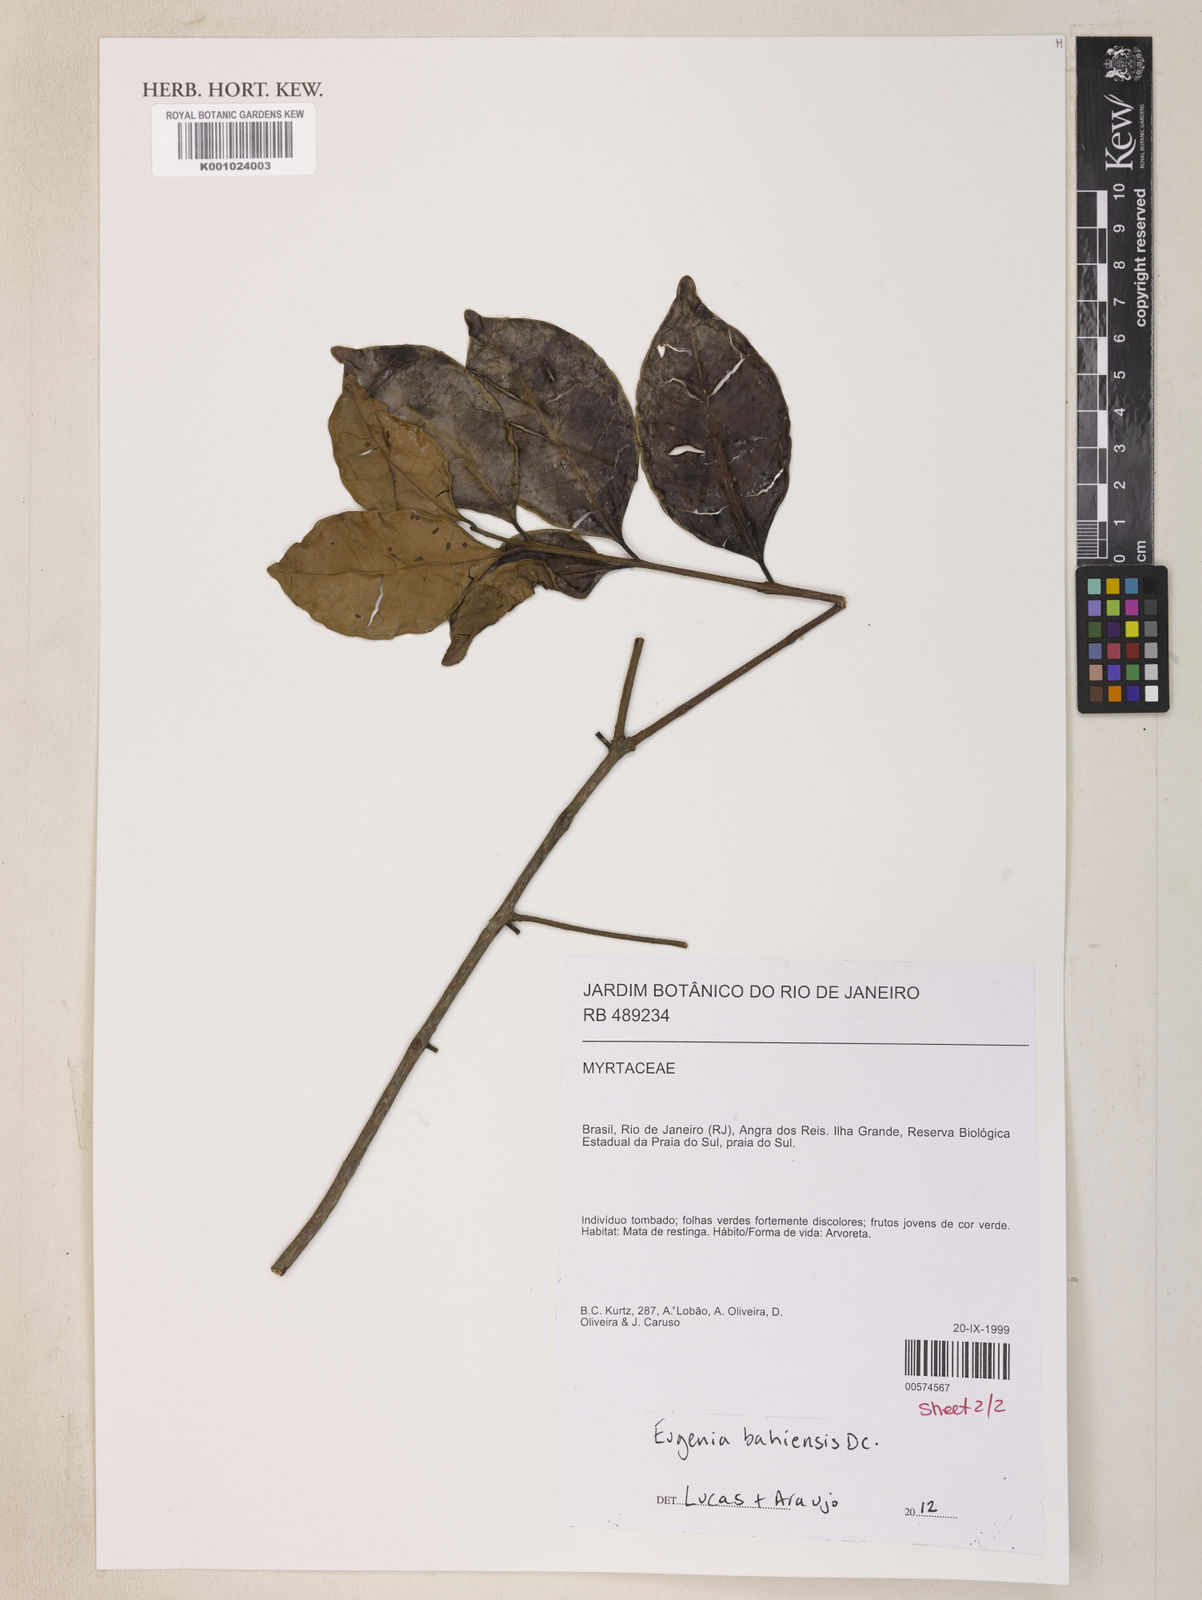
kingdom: Plantae
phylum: Tracheophyta
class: Magnoliopsida
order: Myrtales
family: Myrtaceae
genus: Eugenia
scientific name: Eugenia bahiensis
